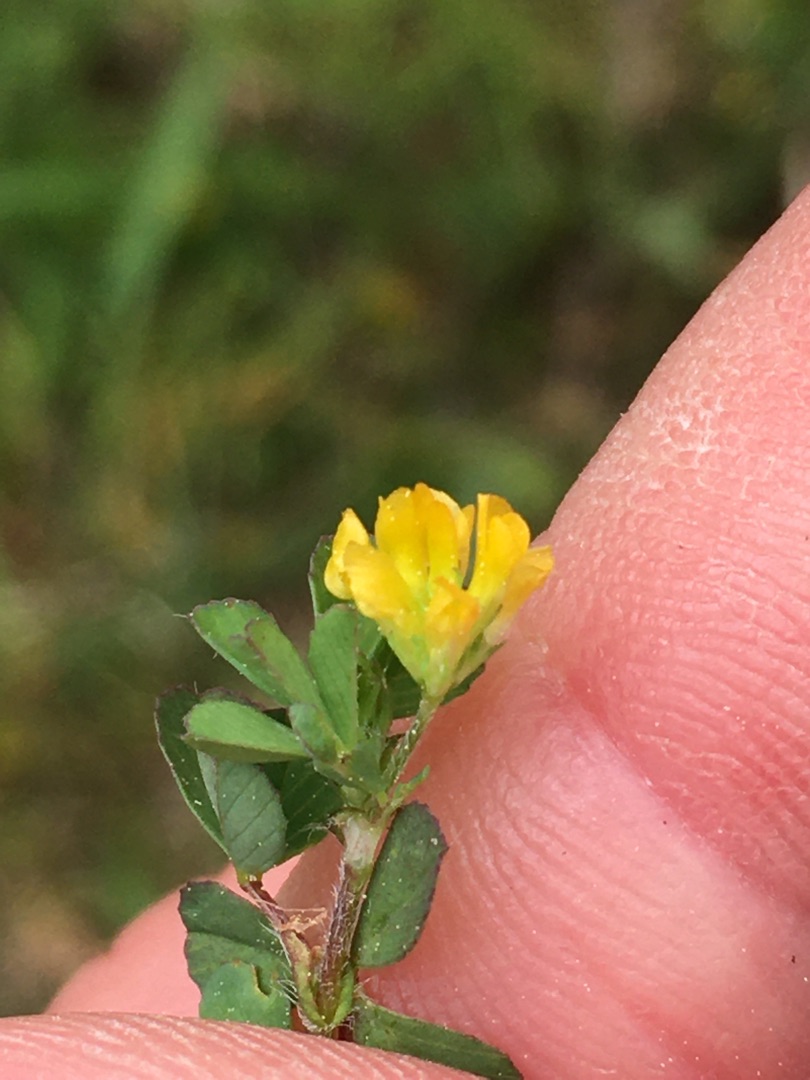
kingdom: Plantae
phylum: Tracheophyta
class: Magnoliopsida
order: Fabales
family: Fabaceae
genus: Trifolium
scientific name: Trifolium dubium
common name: Fin kløver
